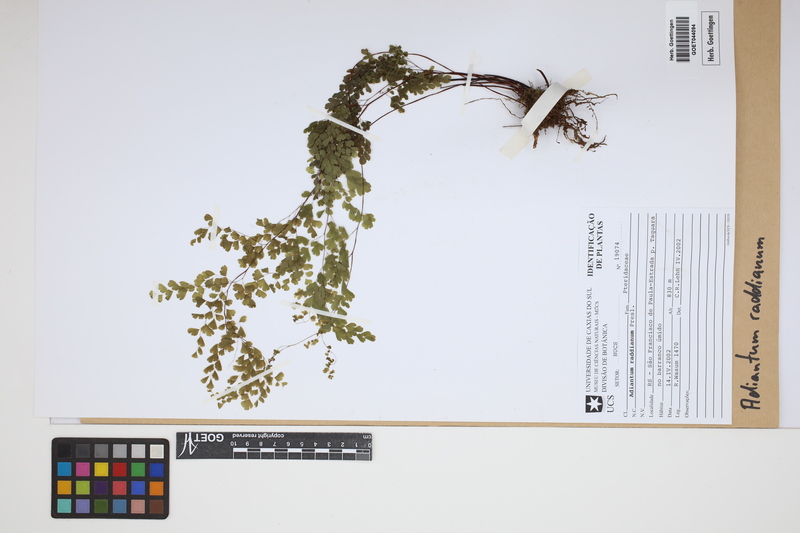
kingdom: Plantae
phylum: Tracheophyta
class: Polypodiopsida
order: Polypodiales
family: Pteridaceae
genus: Adiantum
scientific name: Adiantum raddianum
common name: Delta maidenhair fern
